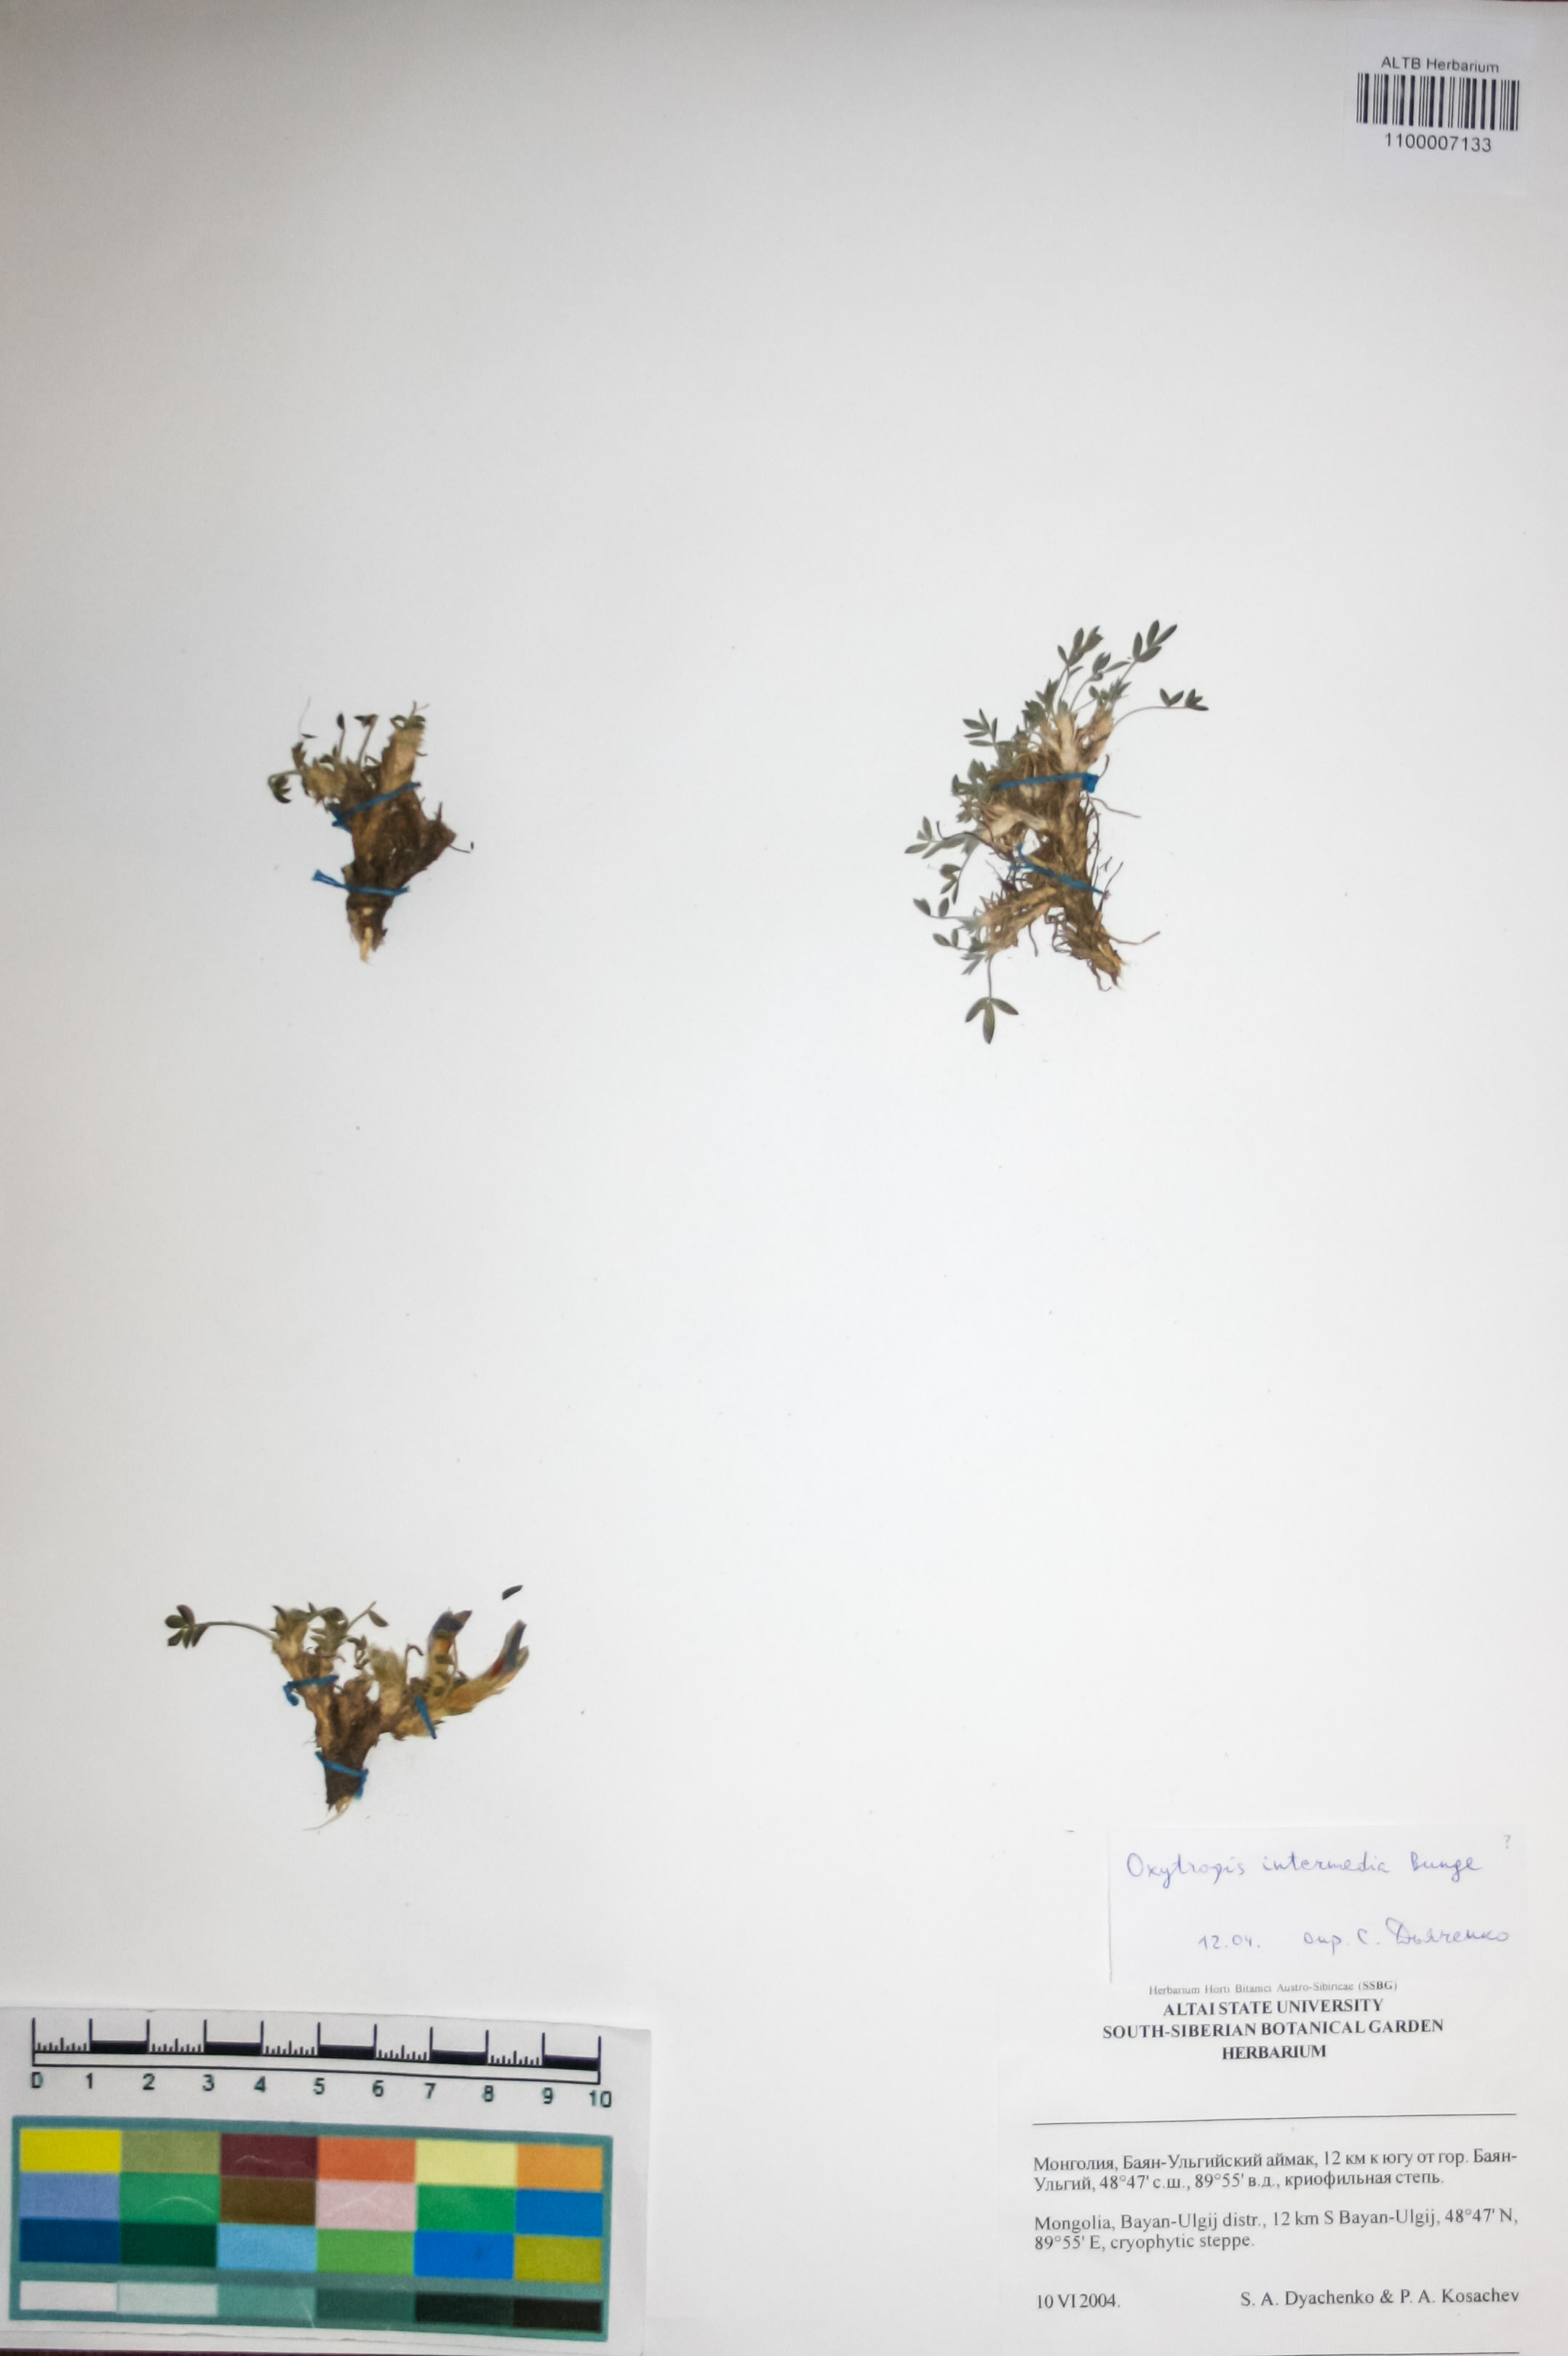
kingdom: Plantae
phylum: Tracheophyta
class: Magnoliopsida
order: Fabales
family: Fabaceae
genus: Oxytropis
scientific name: Oxytropis intermedia
